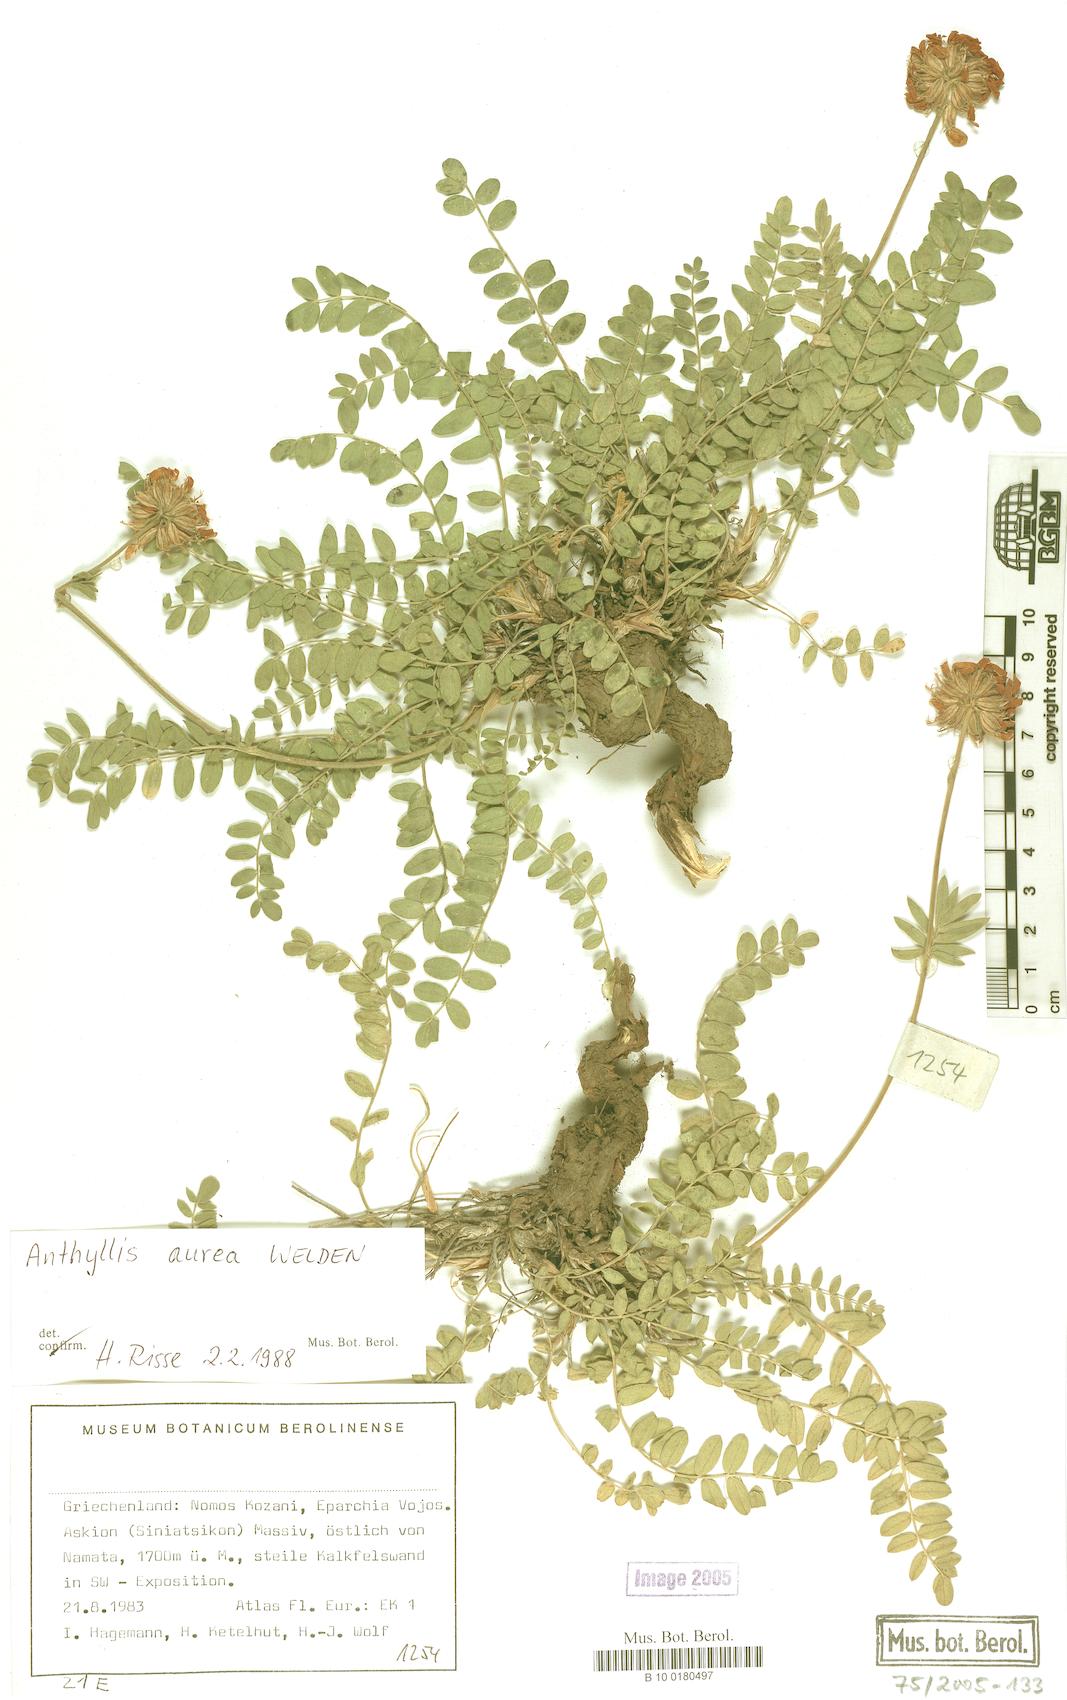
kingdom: Plantae
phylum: Tracheophyta
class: Magnoliopsida
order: Fabales
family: Fabaceae
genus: Anthyllis
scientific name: Anthyllis aurea
